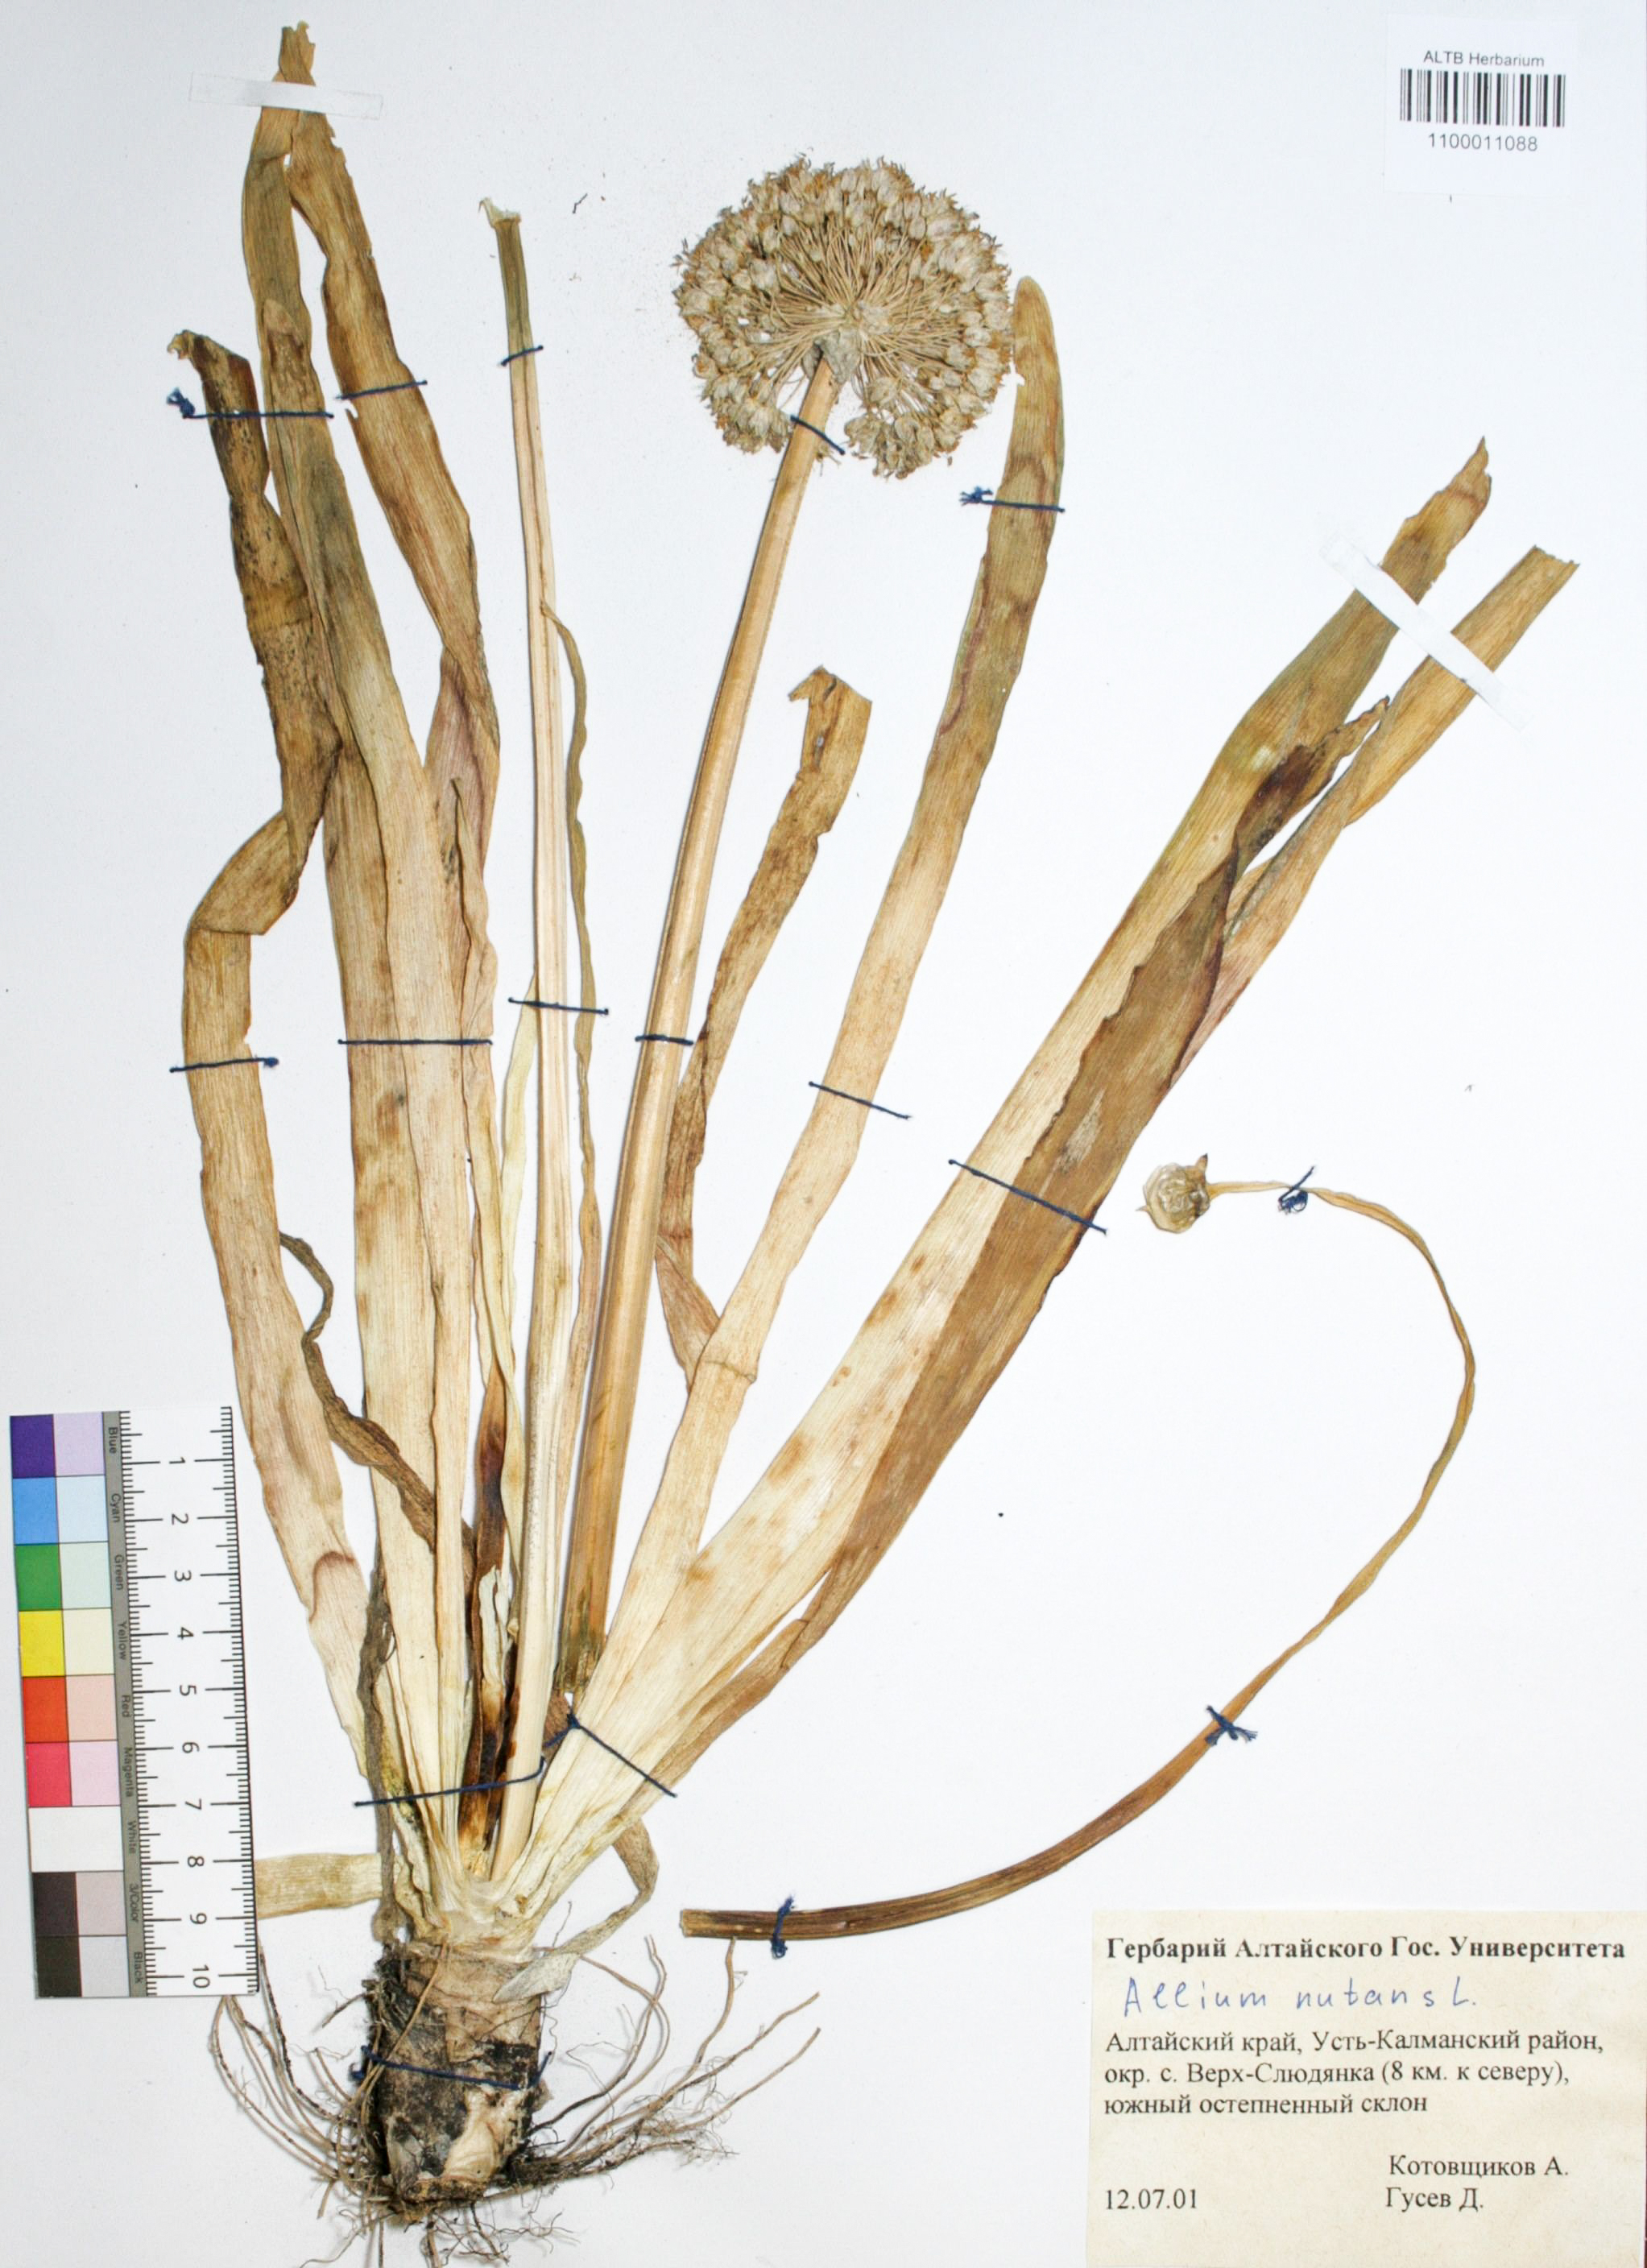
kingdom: Plantae
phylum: Tracheophyta
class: Liliopsida
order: Asparagales
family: Amaryllidaceae
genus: Allium
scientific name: Allium nutans
